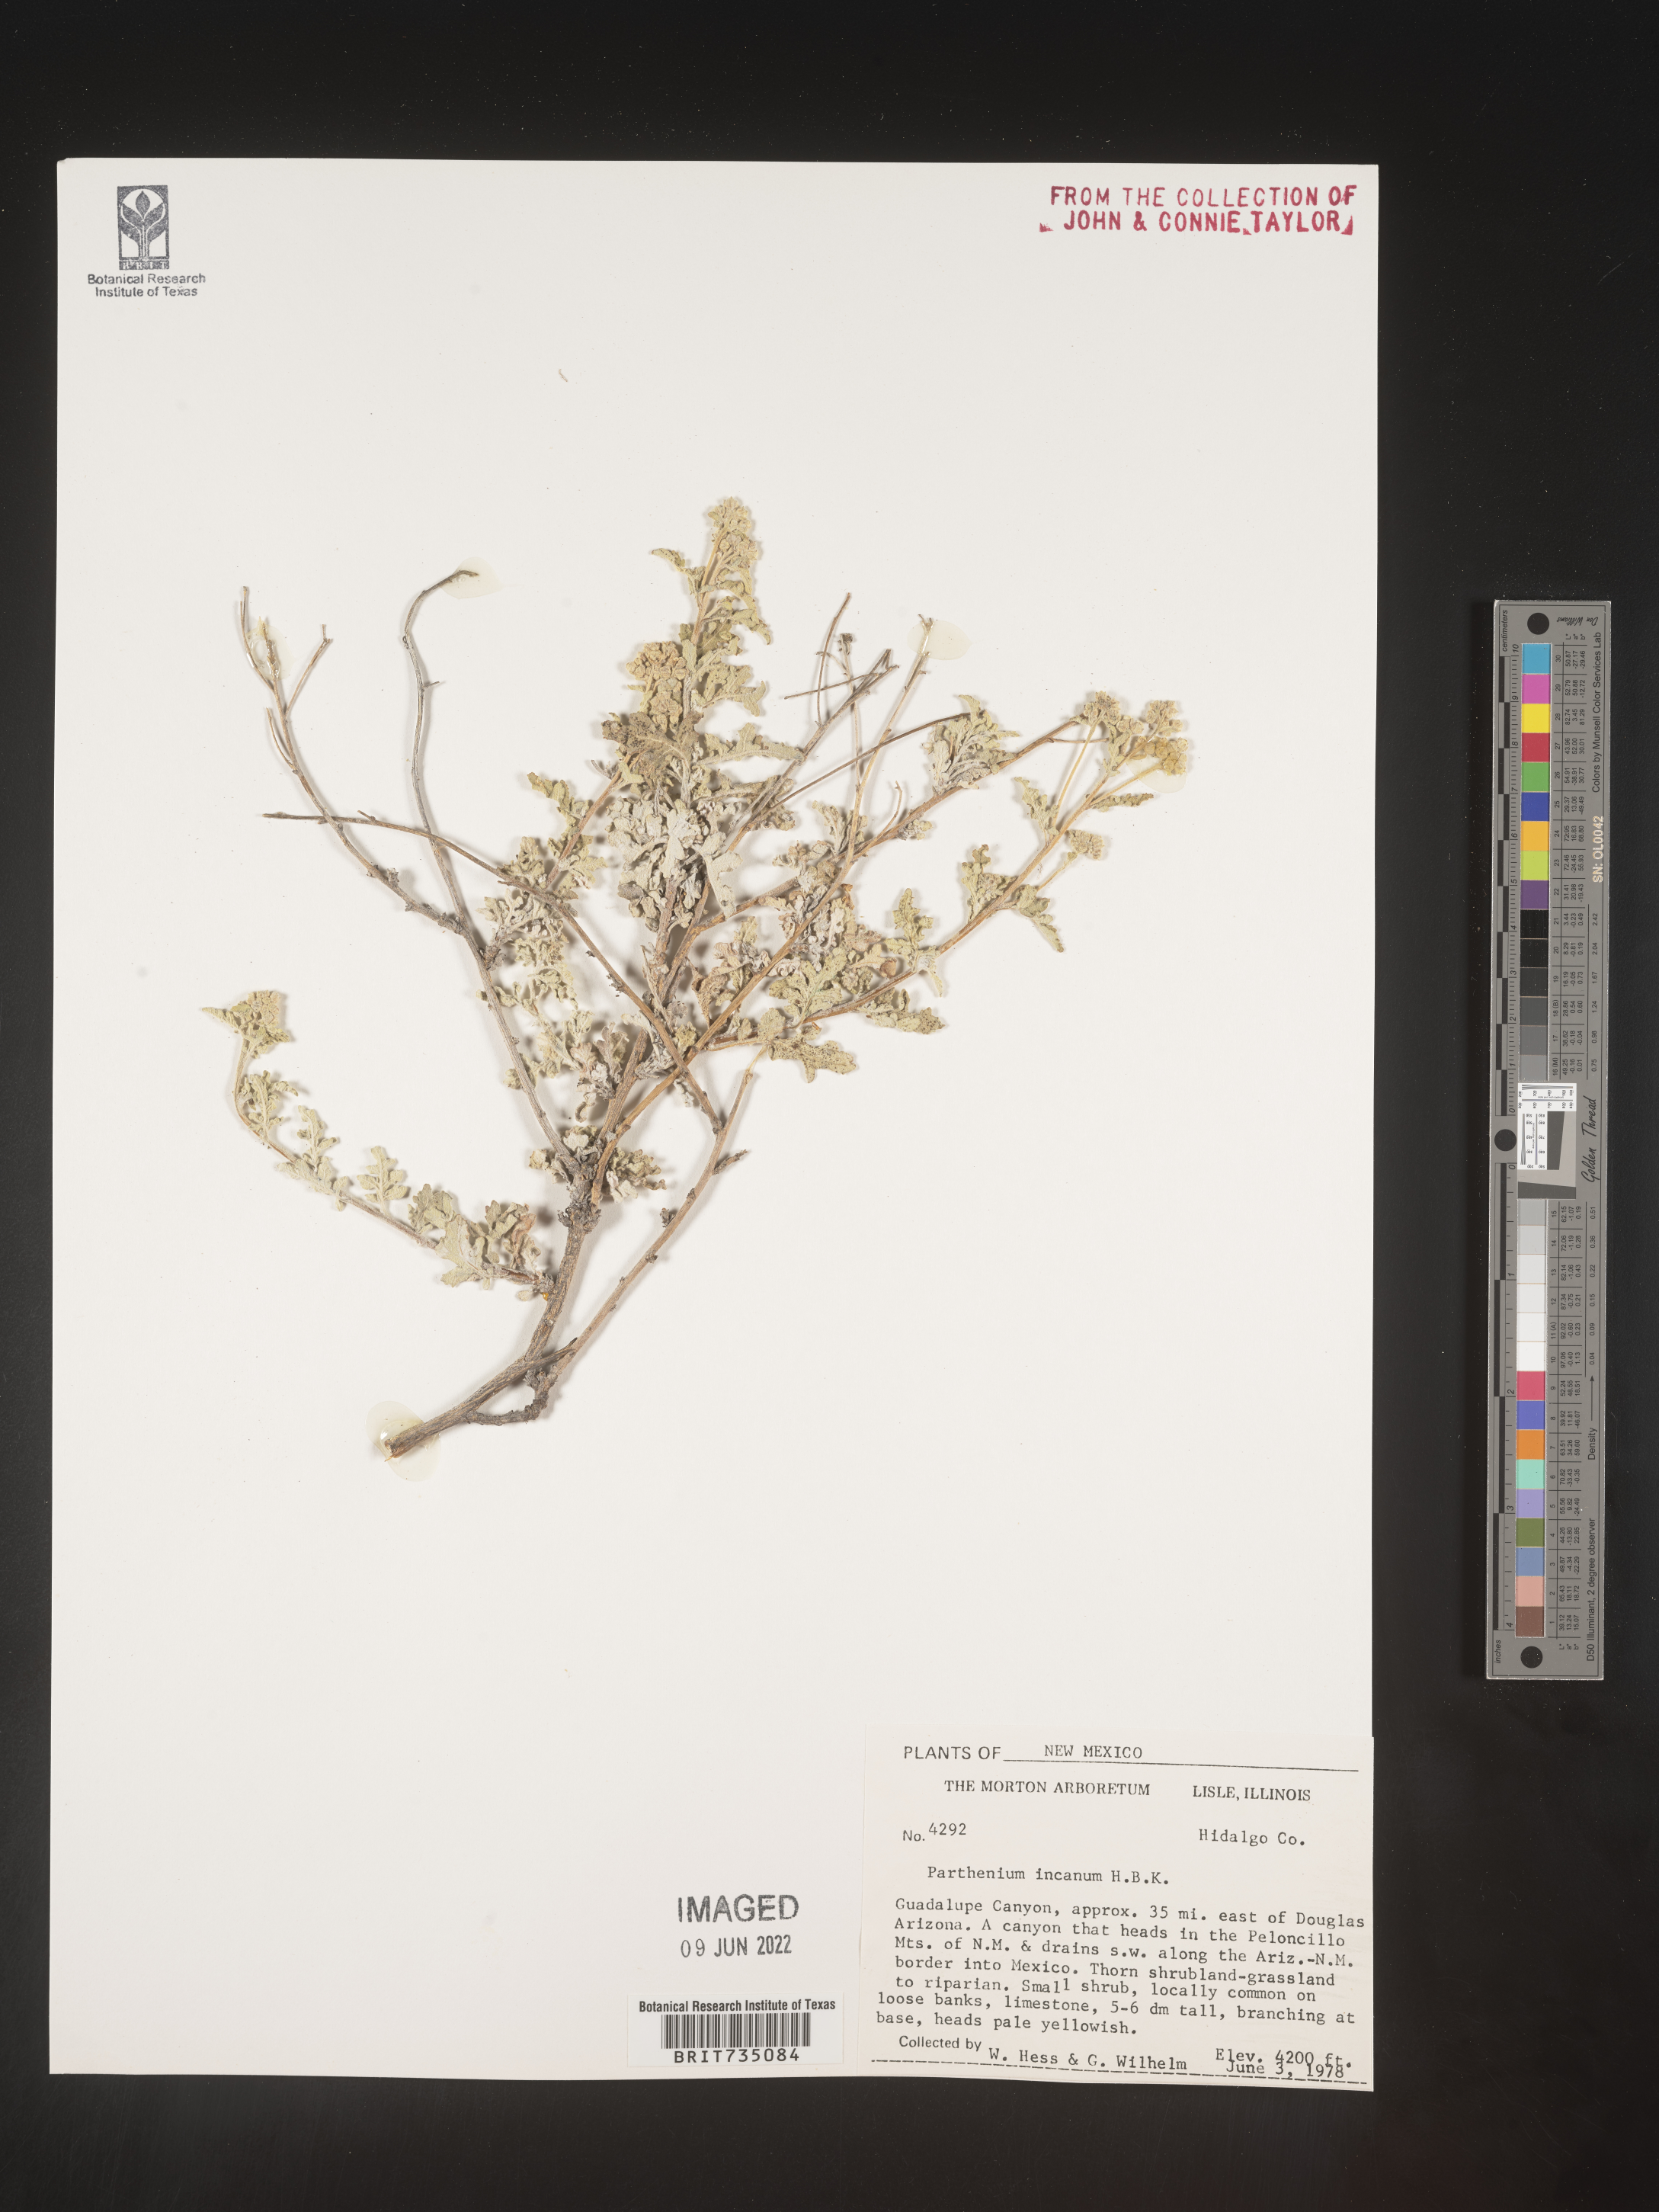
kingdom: Plantae
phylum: Tracheophyta
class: Magnoliopsida
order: Asterales
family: Asteraceae
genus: Parthenium
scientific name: Parthenium incanum
